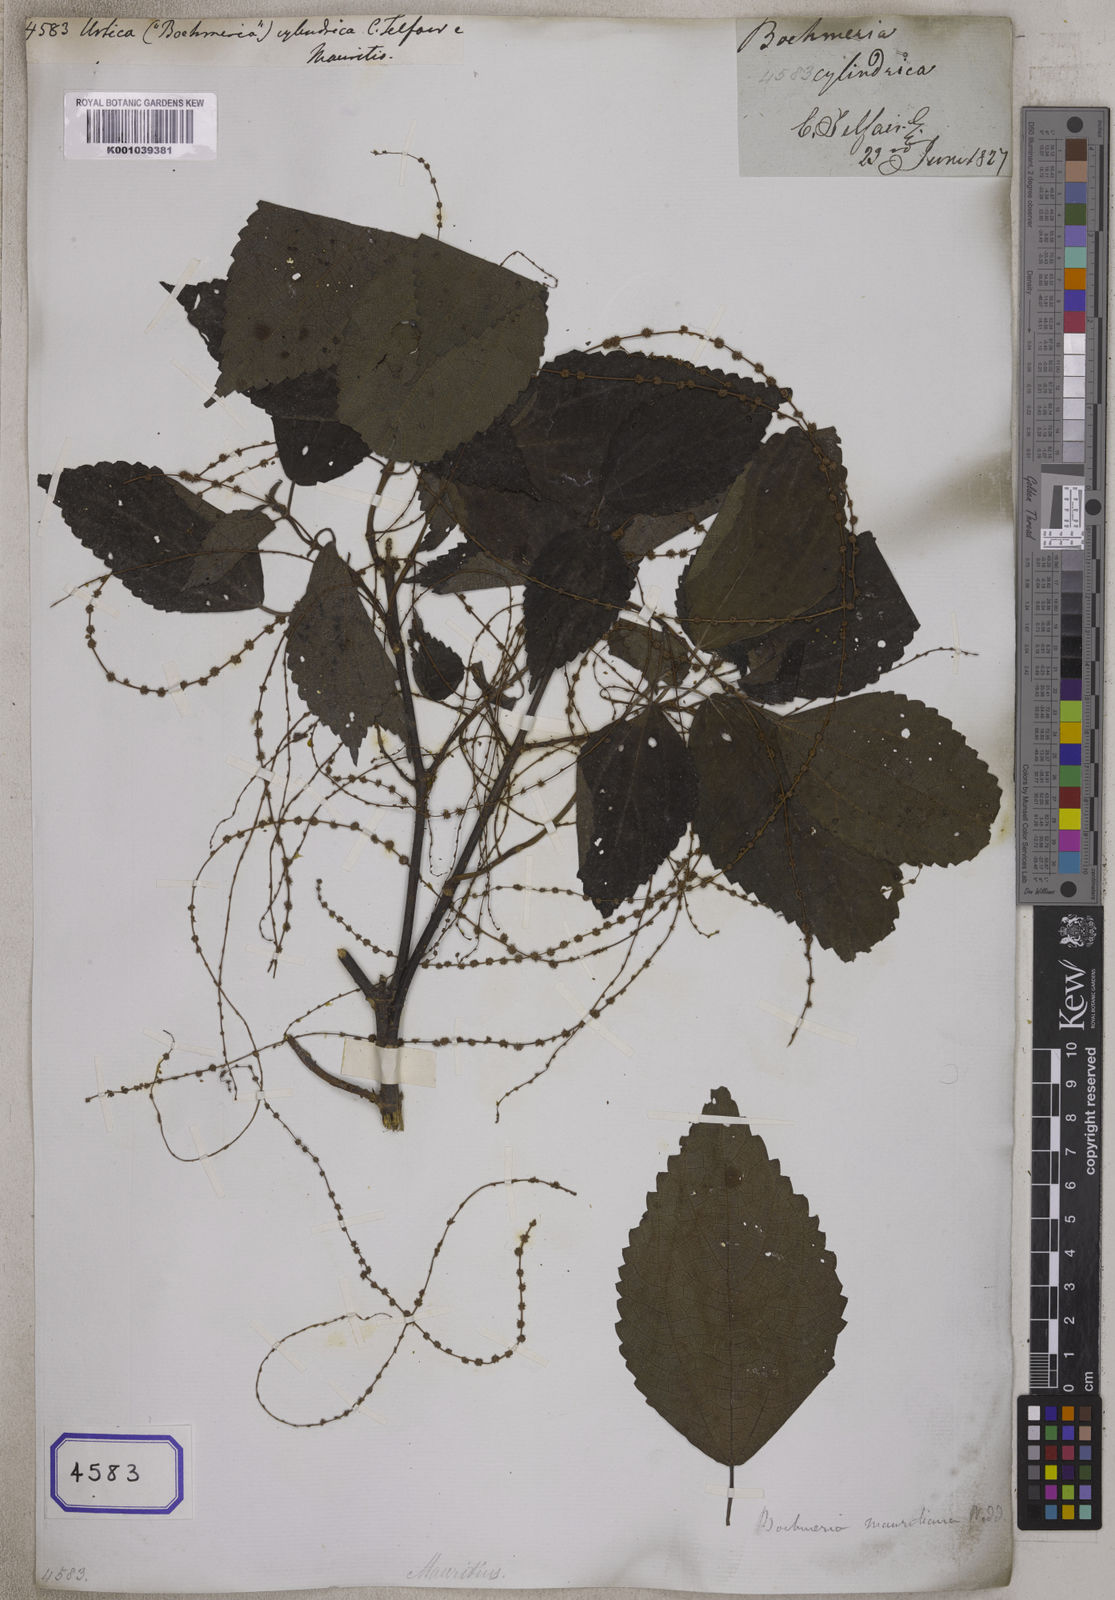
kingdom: Plantae
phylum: Tracheophyta
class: Magnoliopsida
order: Rosales
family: Urticaceae
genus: Boehmeria
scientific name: Boehmeria cylindrica
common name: Bog-hemp
